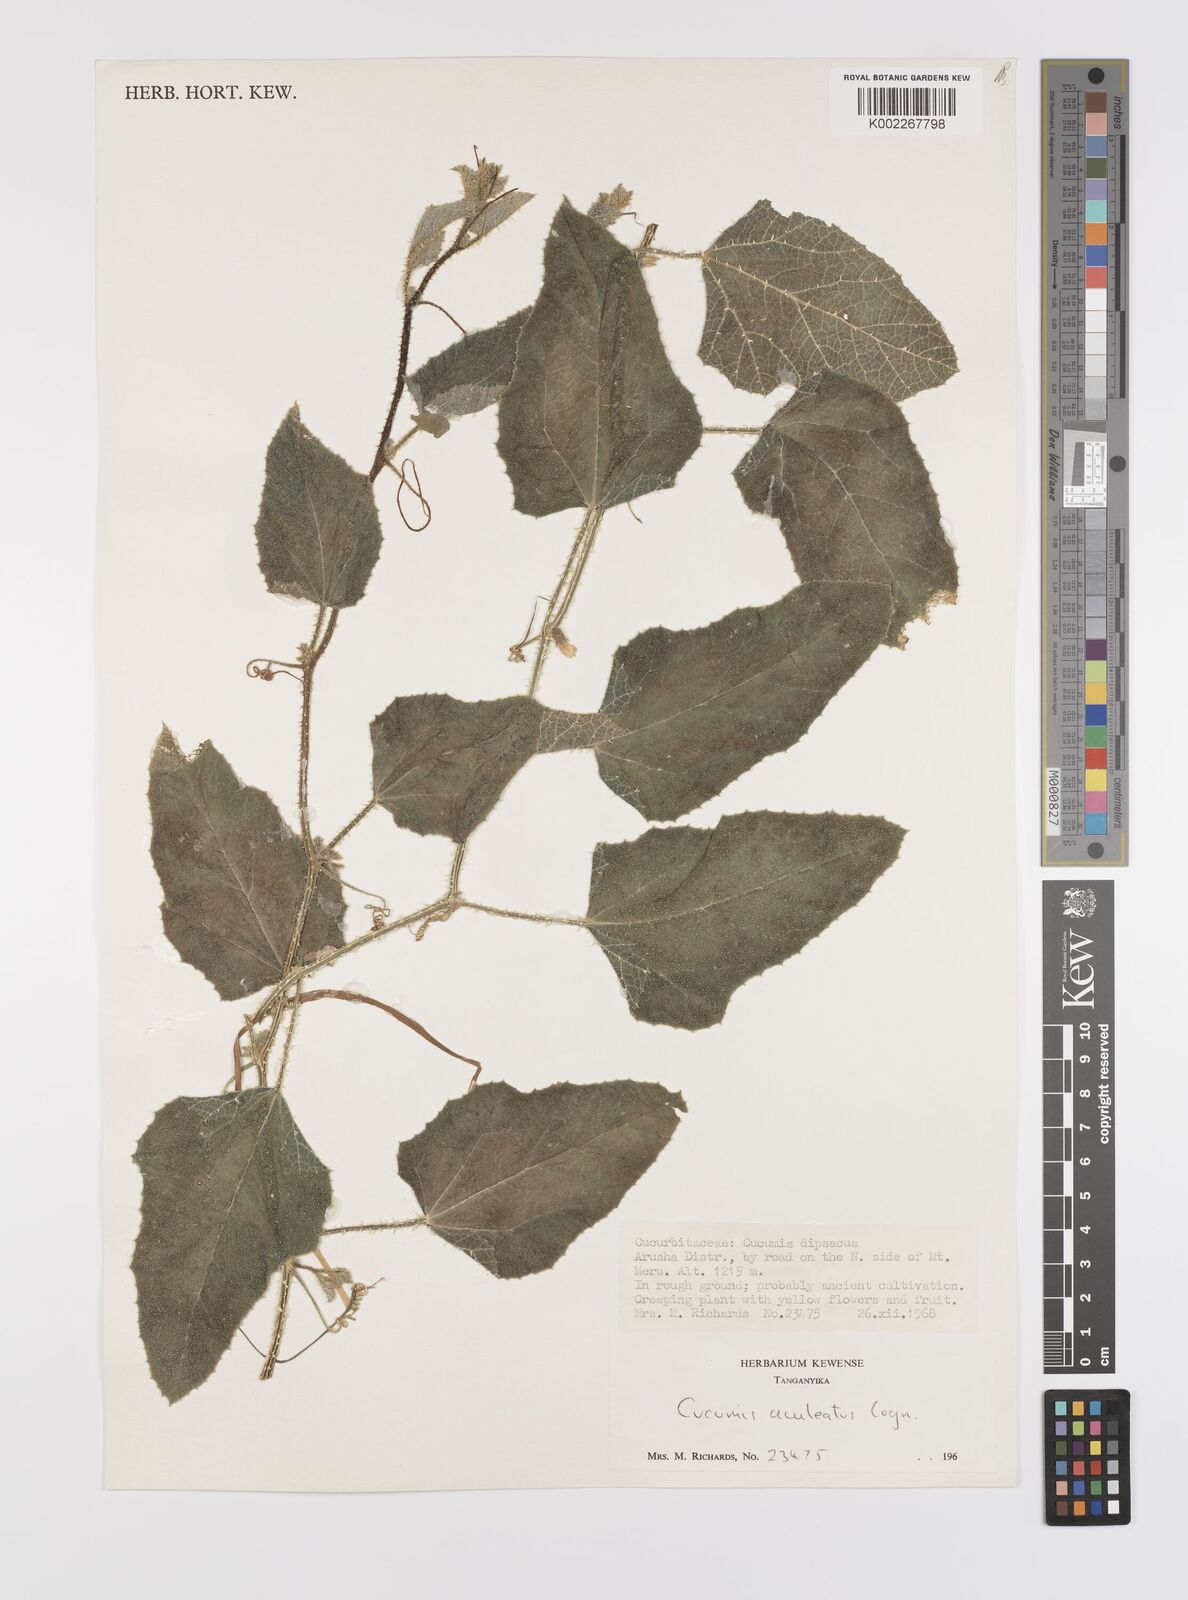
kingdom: Plantae
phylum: Tracheophyta
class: Magnoliopsida
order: Cucurbitales
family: Cucurbitaceae
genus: Cucumis
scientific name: Cucumis aculeatus
